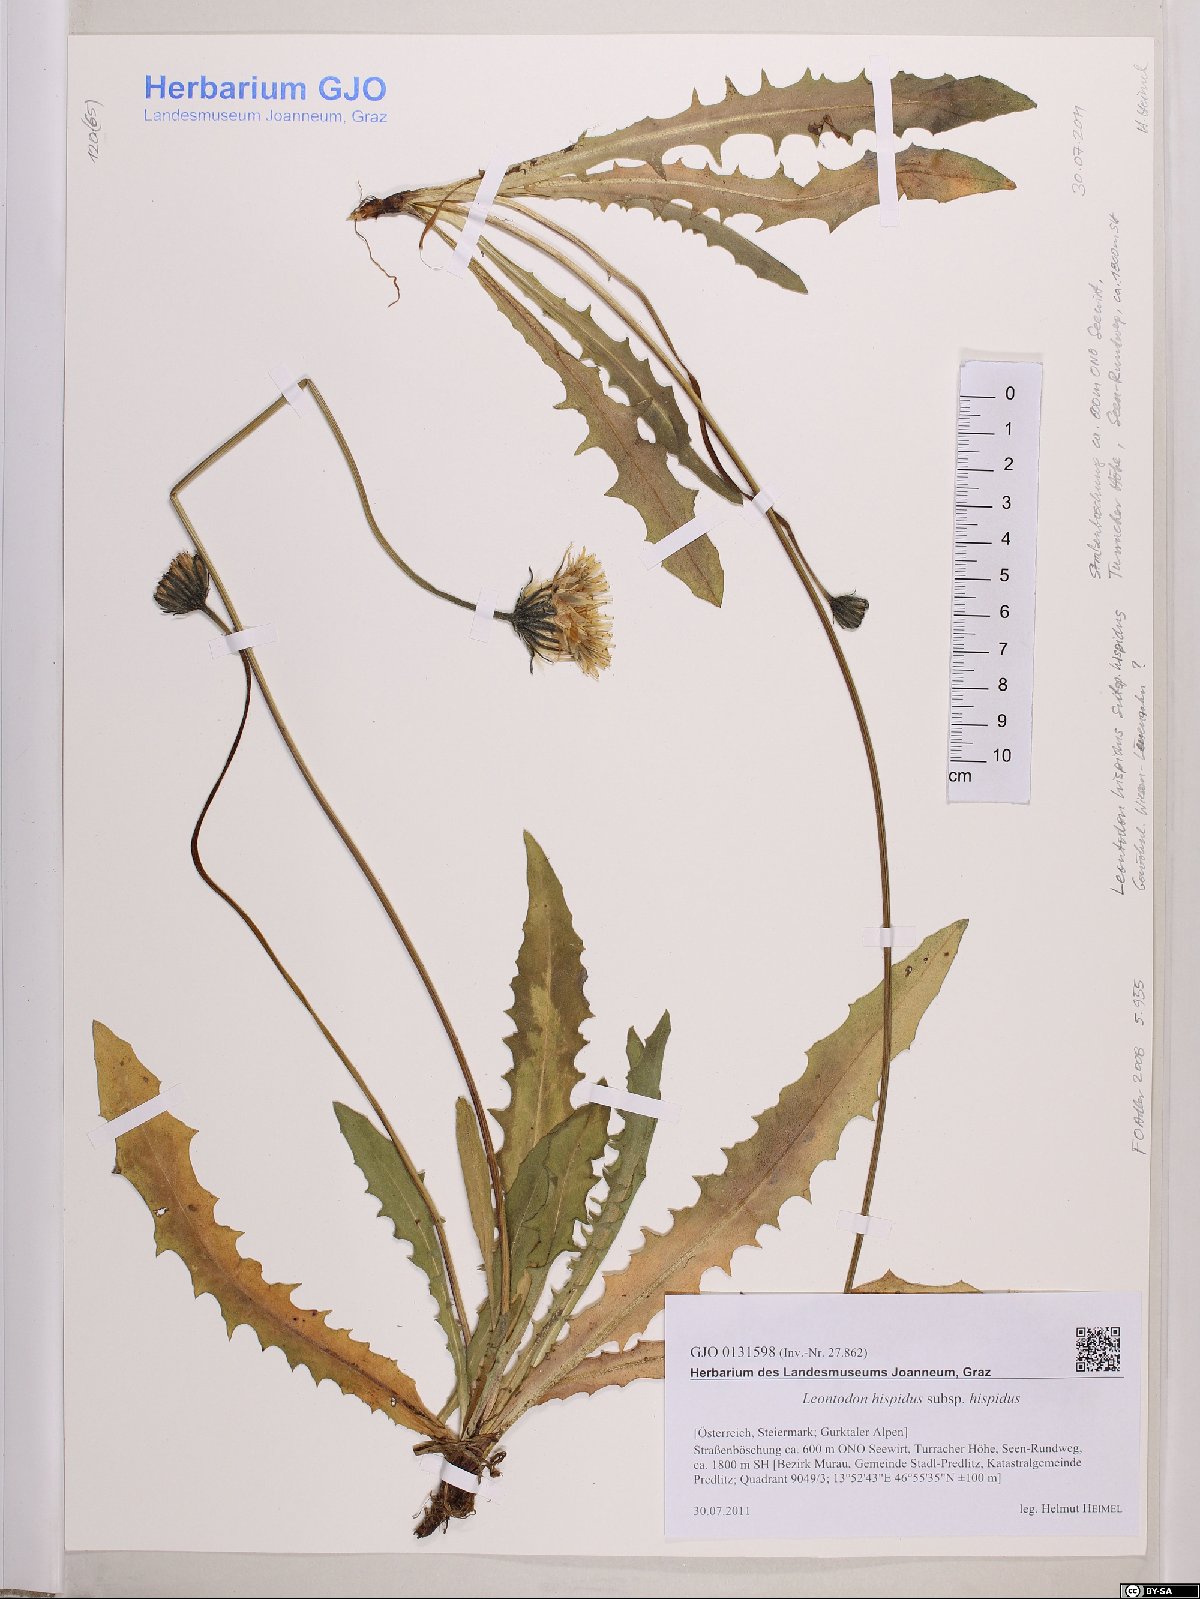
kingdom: Plantae
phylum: Tracheophyta
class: Magnoliopsida
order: Asterales
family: Asteraceae
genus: Leontodon
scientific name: Leontodon hispidus
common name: Rough hawkbit
